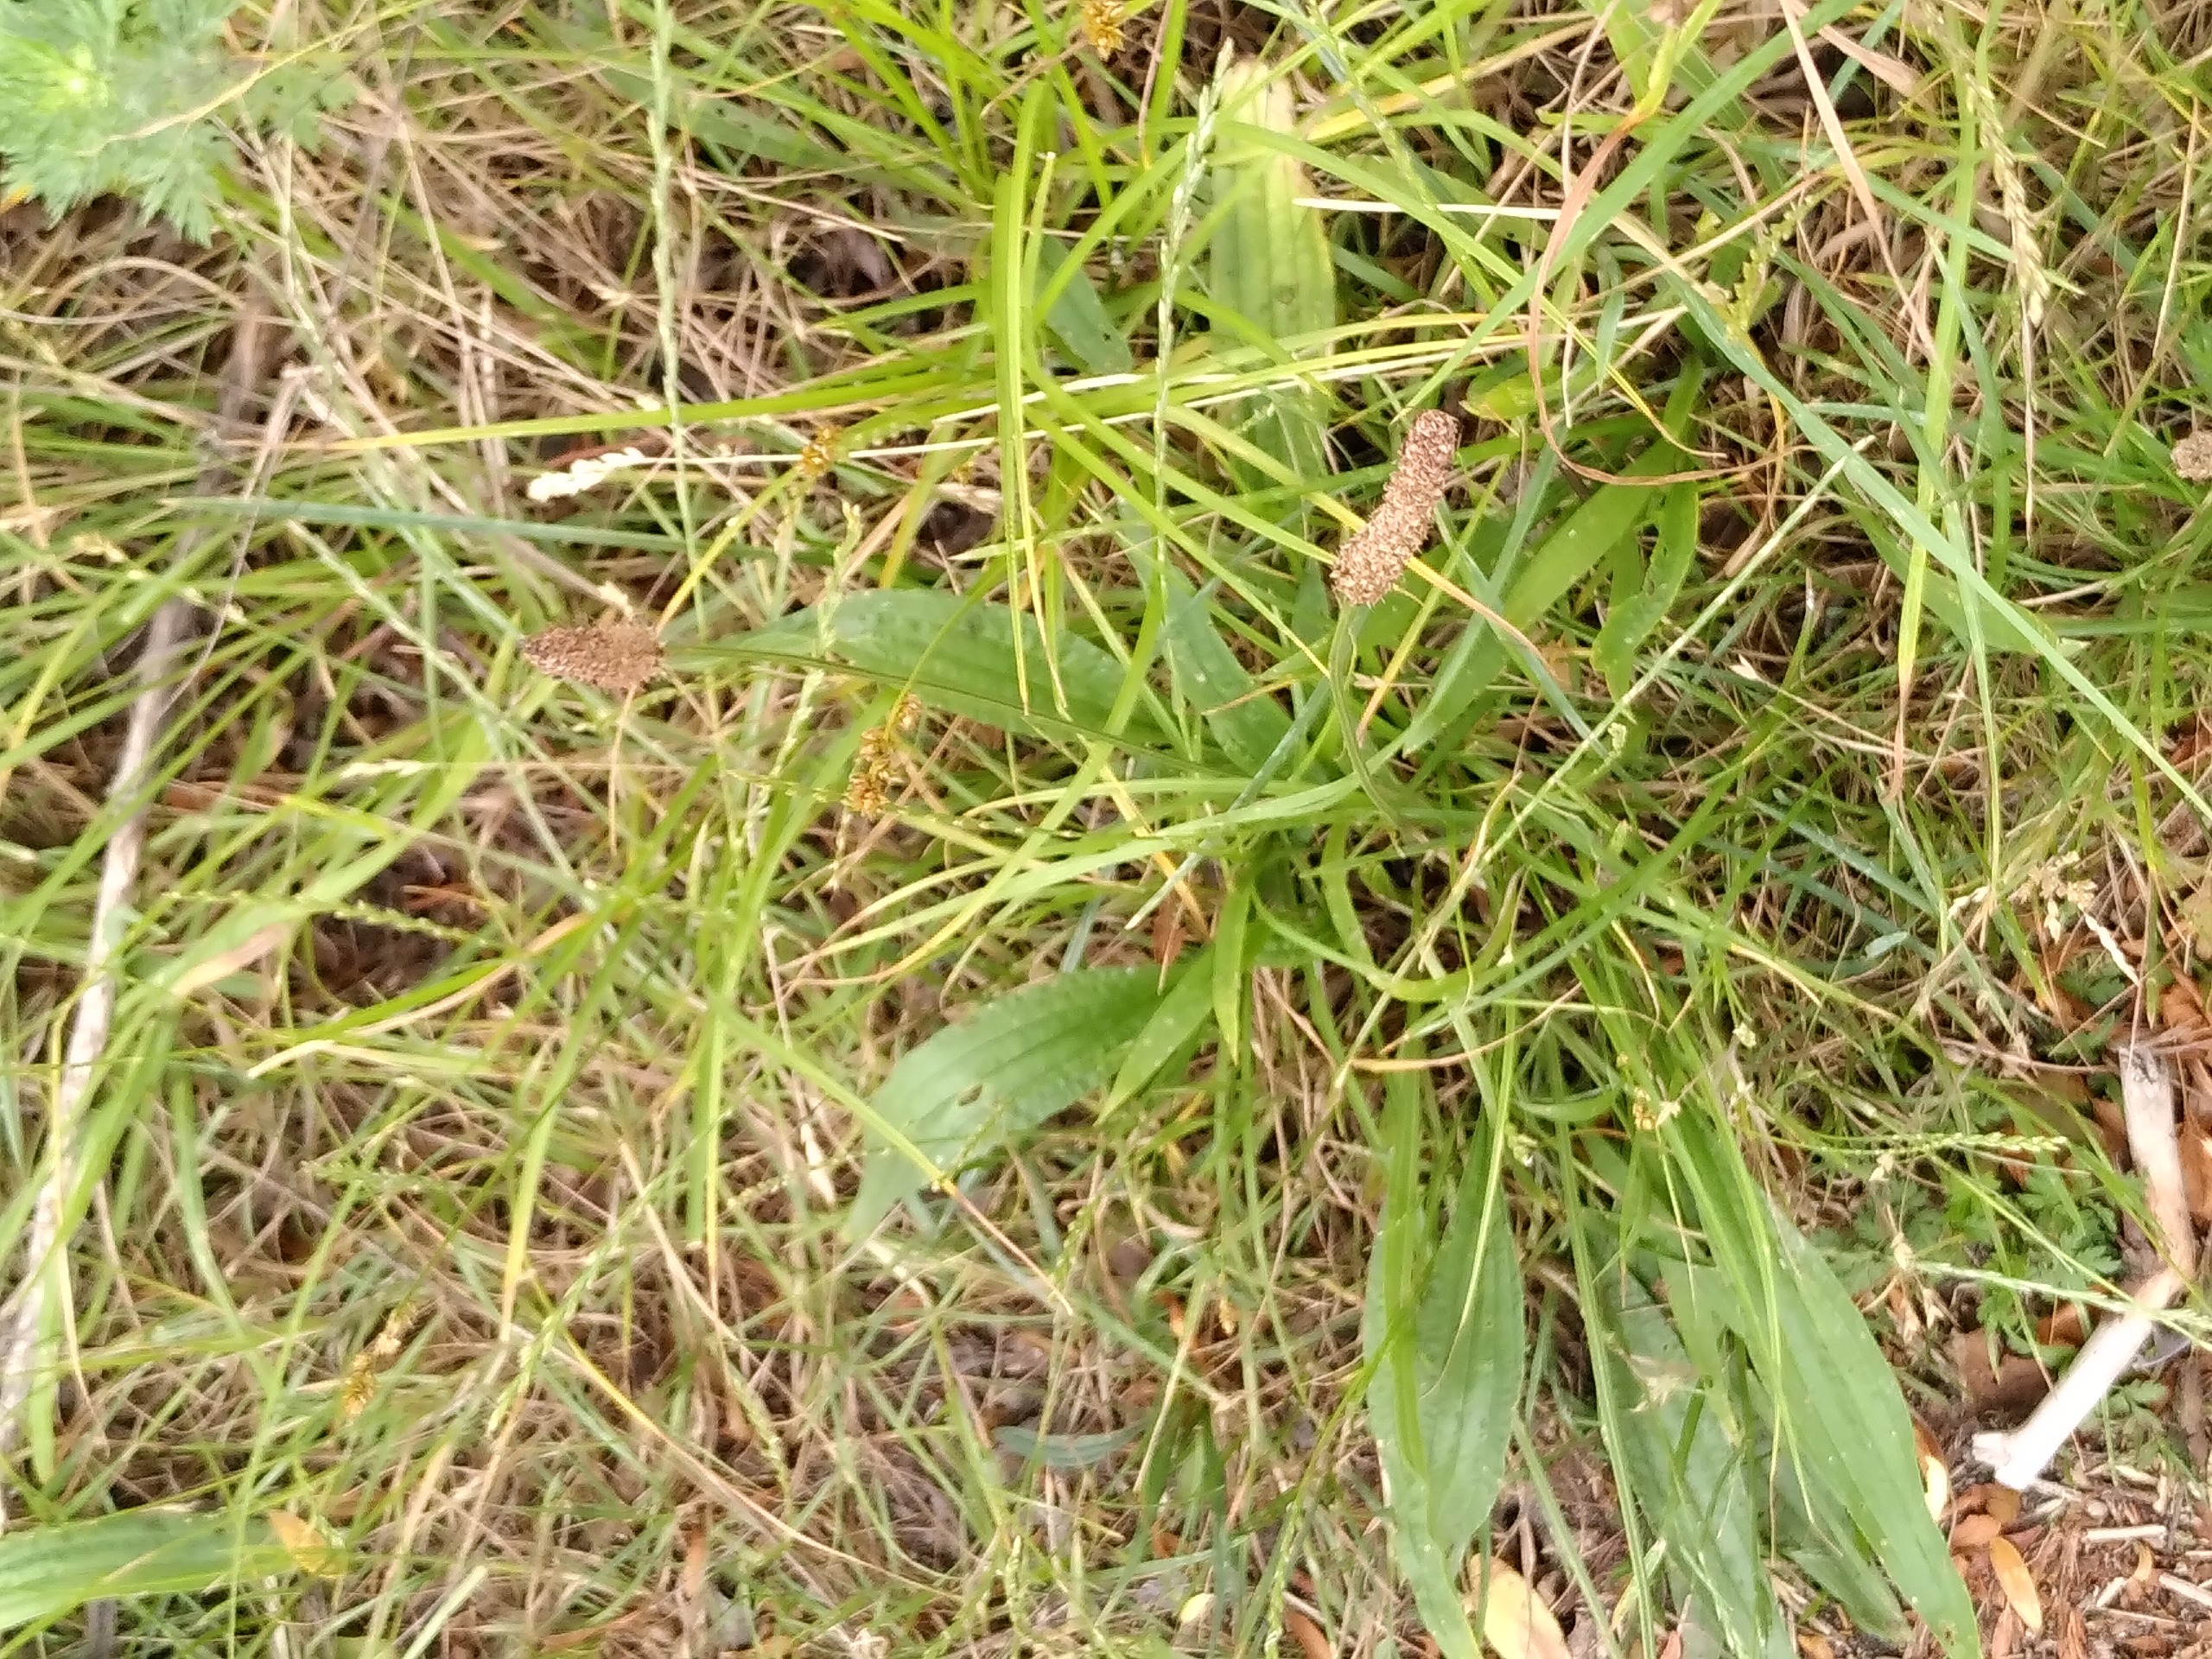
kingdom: Plantae
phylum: Tracheophyta
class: Magnoliopsida
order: Lamiales
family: Plantaginaceae
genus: Plantago
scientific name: Plantago lanceolata
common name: Lancet-vejbred
